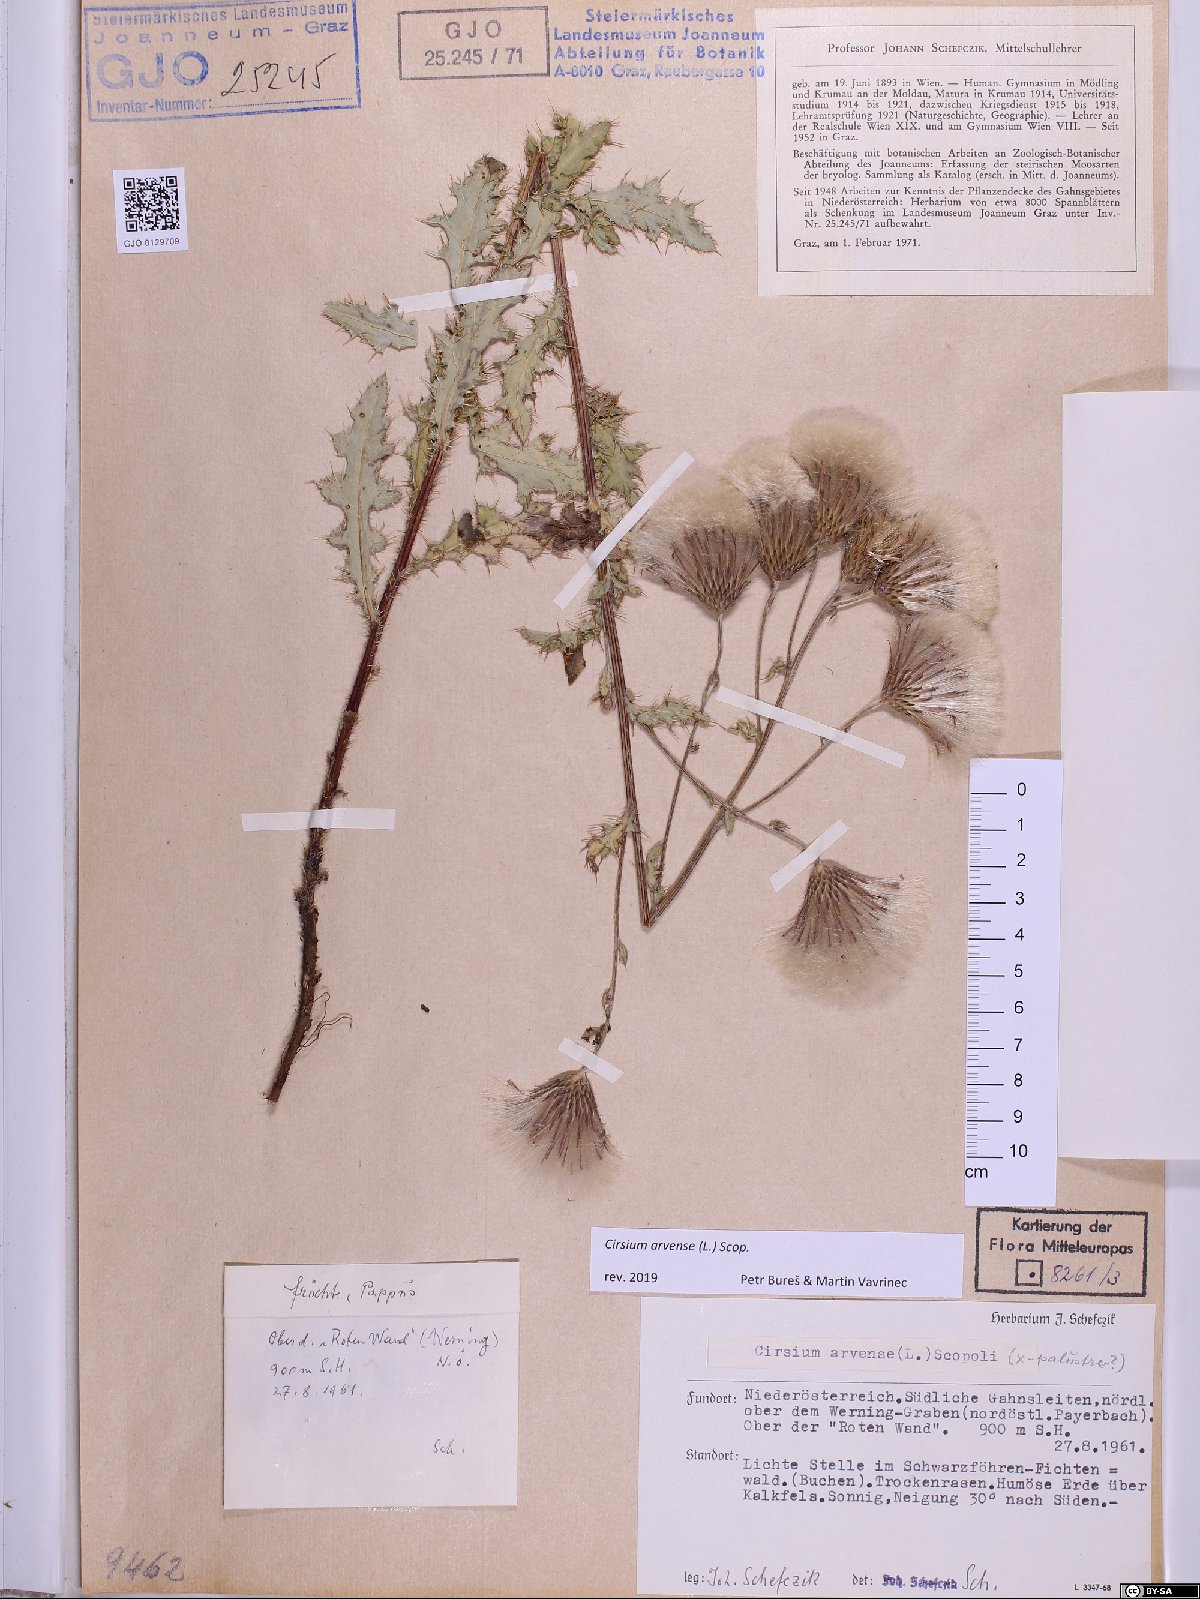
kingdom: Plantae
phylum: Tracheophyta
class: Magnoliopsida
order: Asterales
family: Asteraceae
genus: Cirsium
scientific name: Cirsium arvense
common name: Creeping thistle
